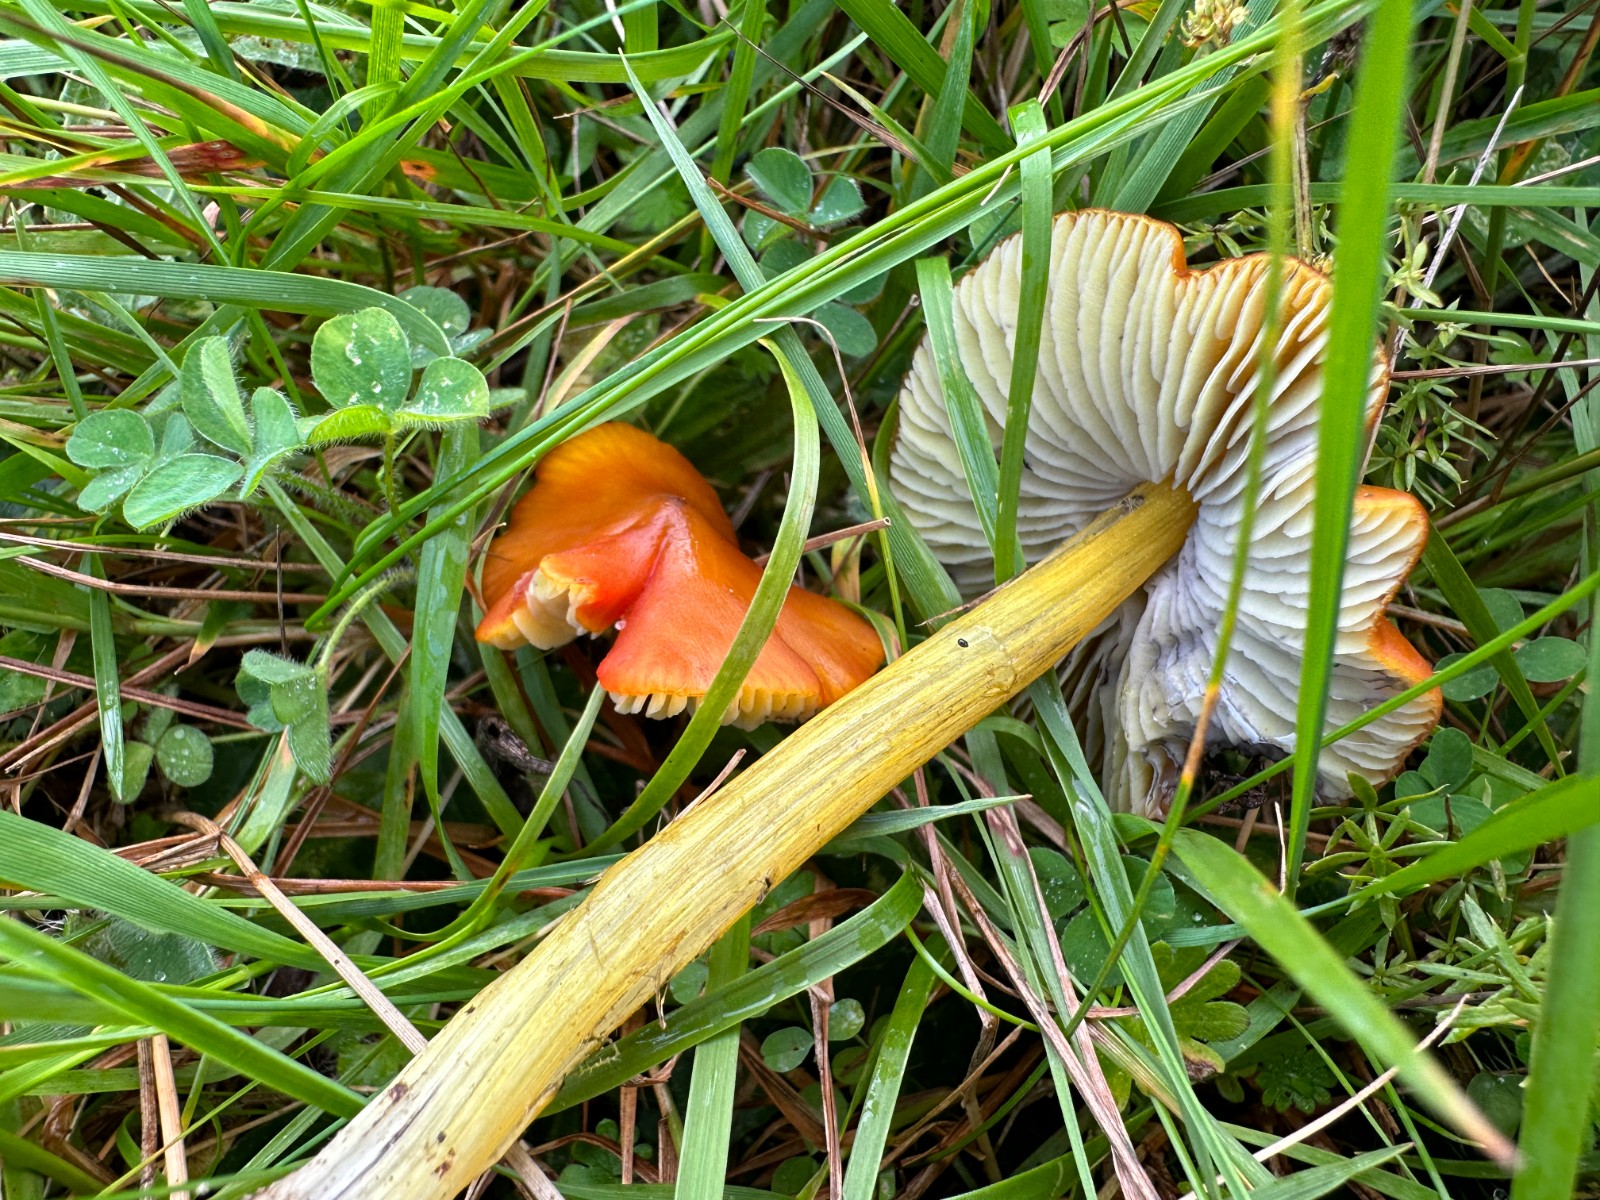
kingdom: Fungi
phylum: Basidiomycota
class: Agaricomycetes
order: Agaricales
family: Hygrophoraceae
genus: Hygrocybe
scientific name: Hygrocybe conica
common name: kegle-vokshat
